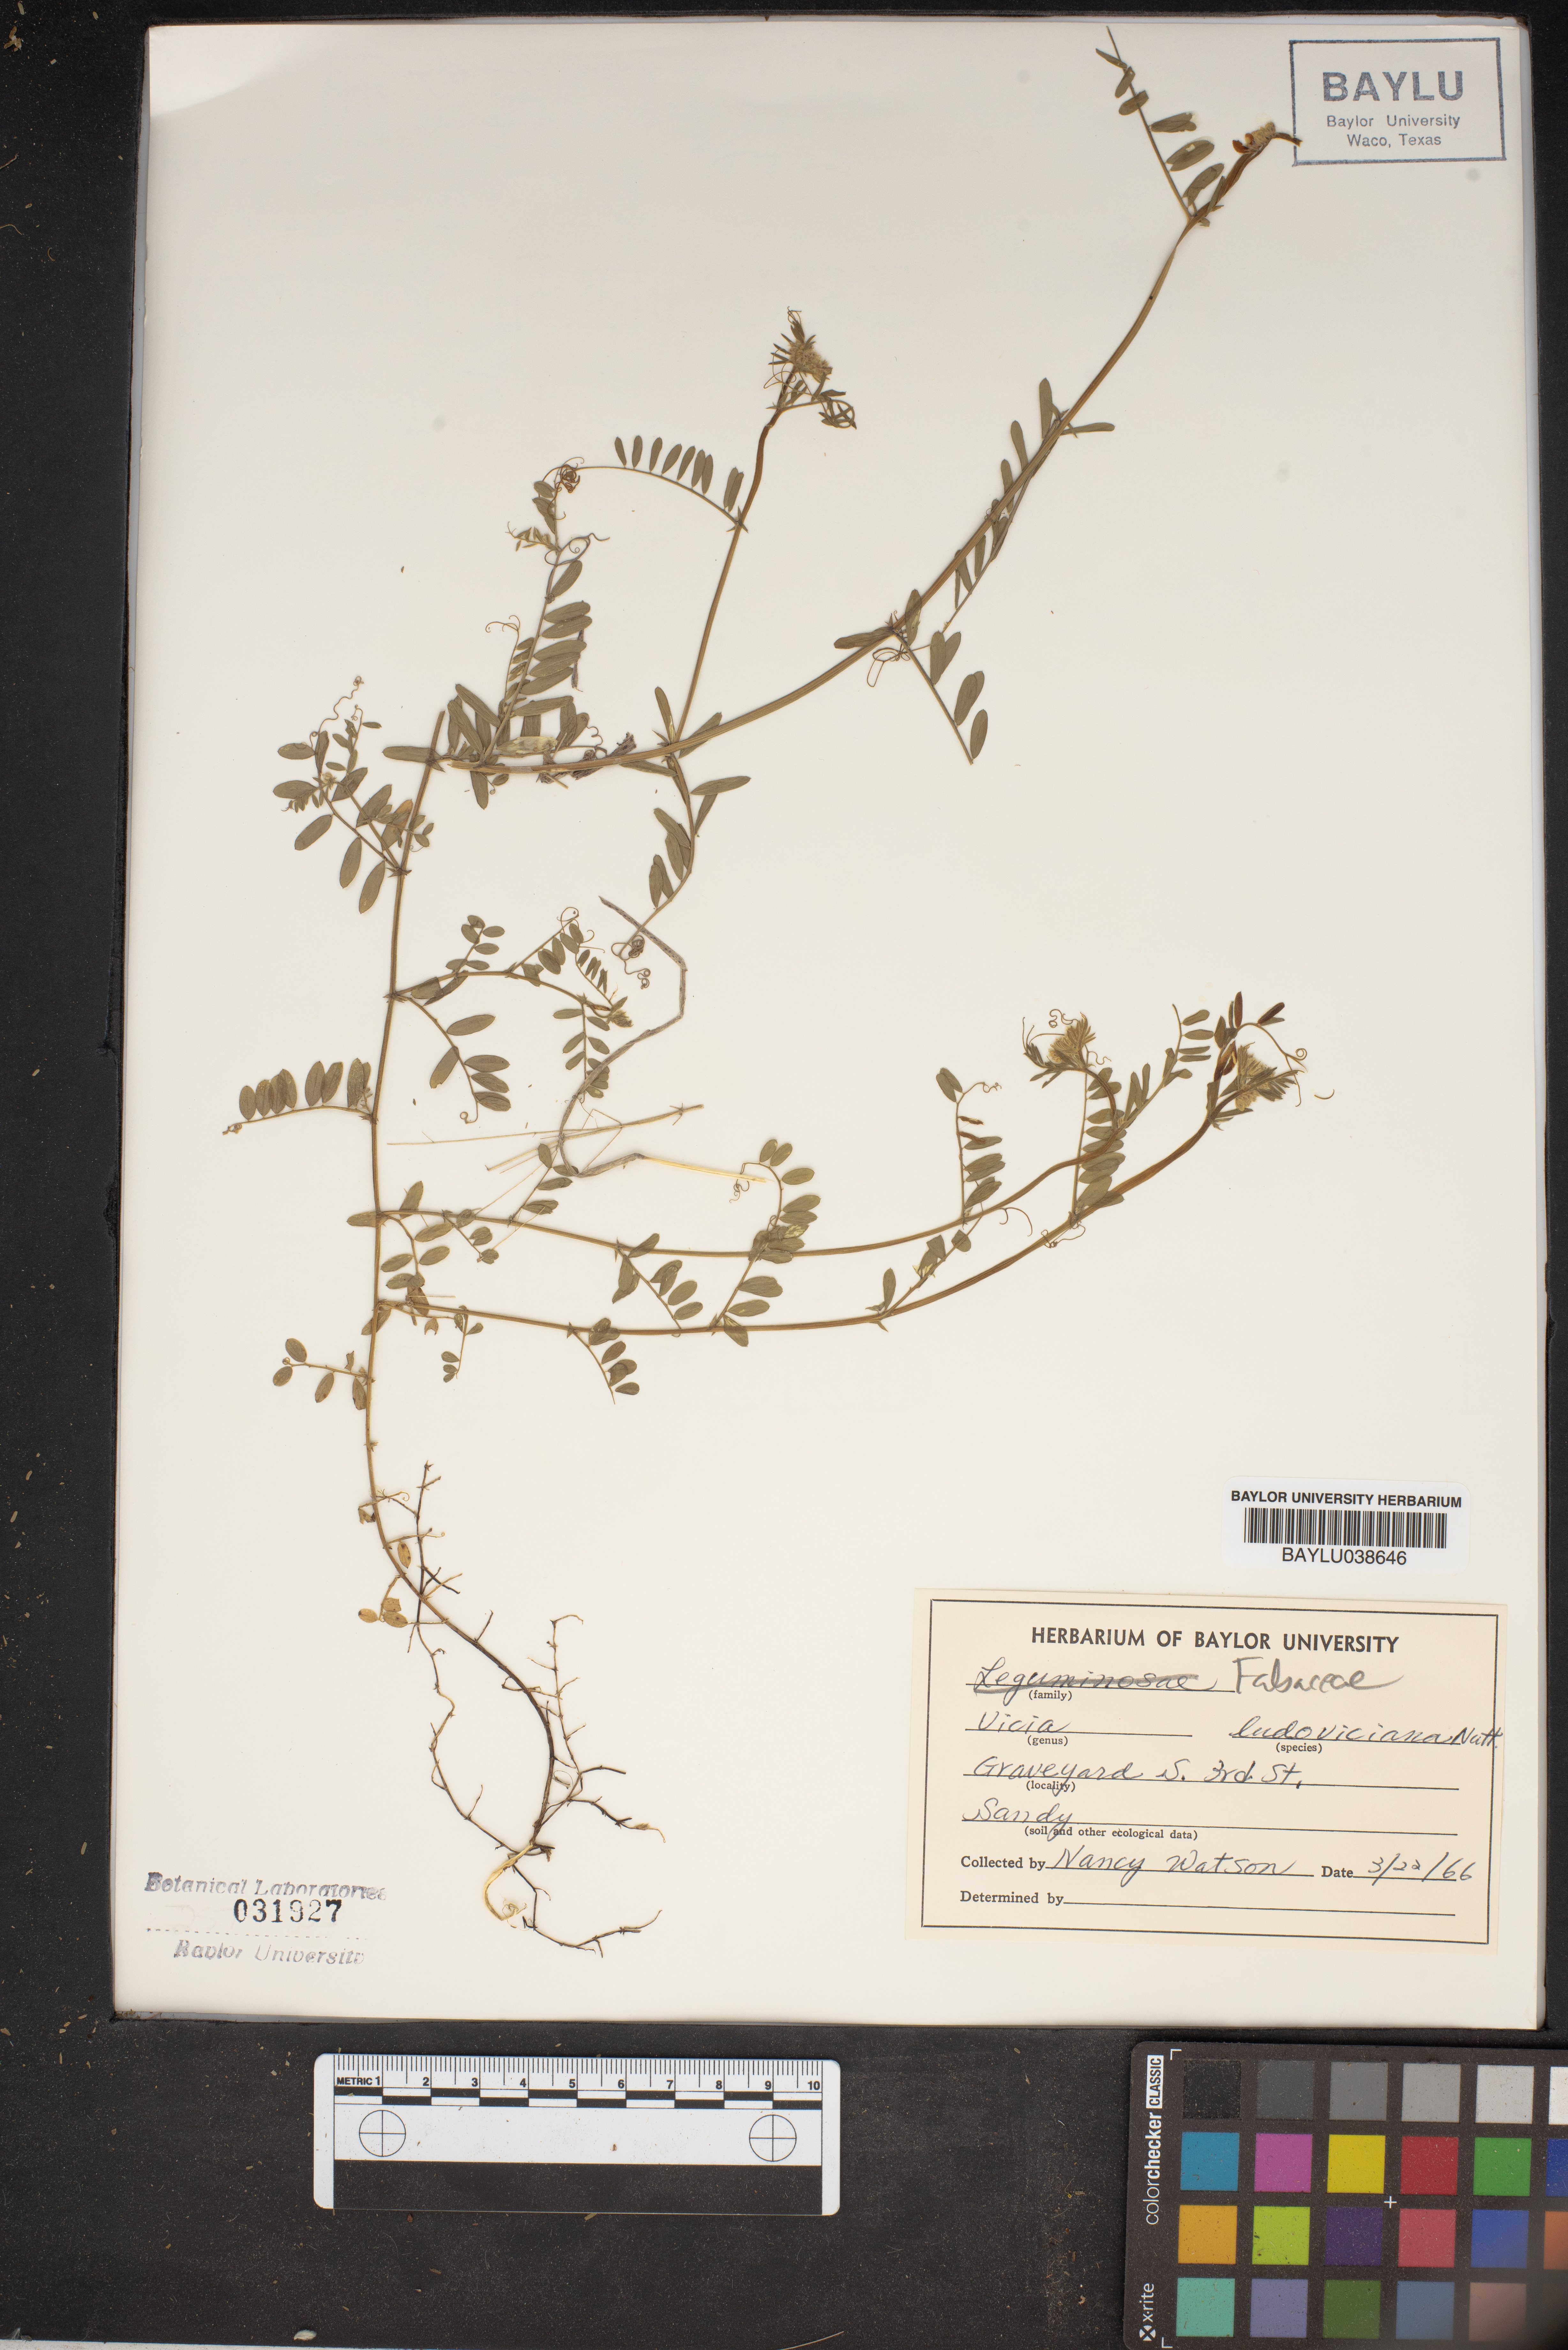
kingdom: Plantae
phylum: Tracheophyta
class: Magnoliopsida
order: Fabales
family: Fabaceae
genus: Vicia
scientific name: Vicia ludoviciana
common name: Louisiana vetch
